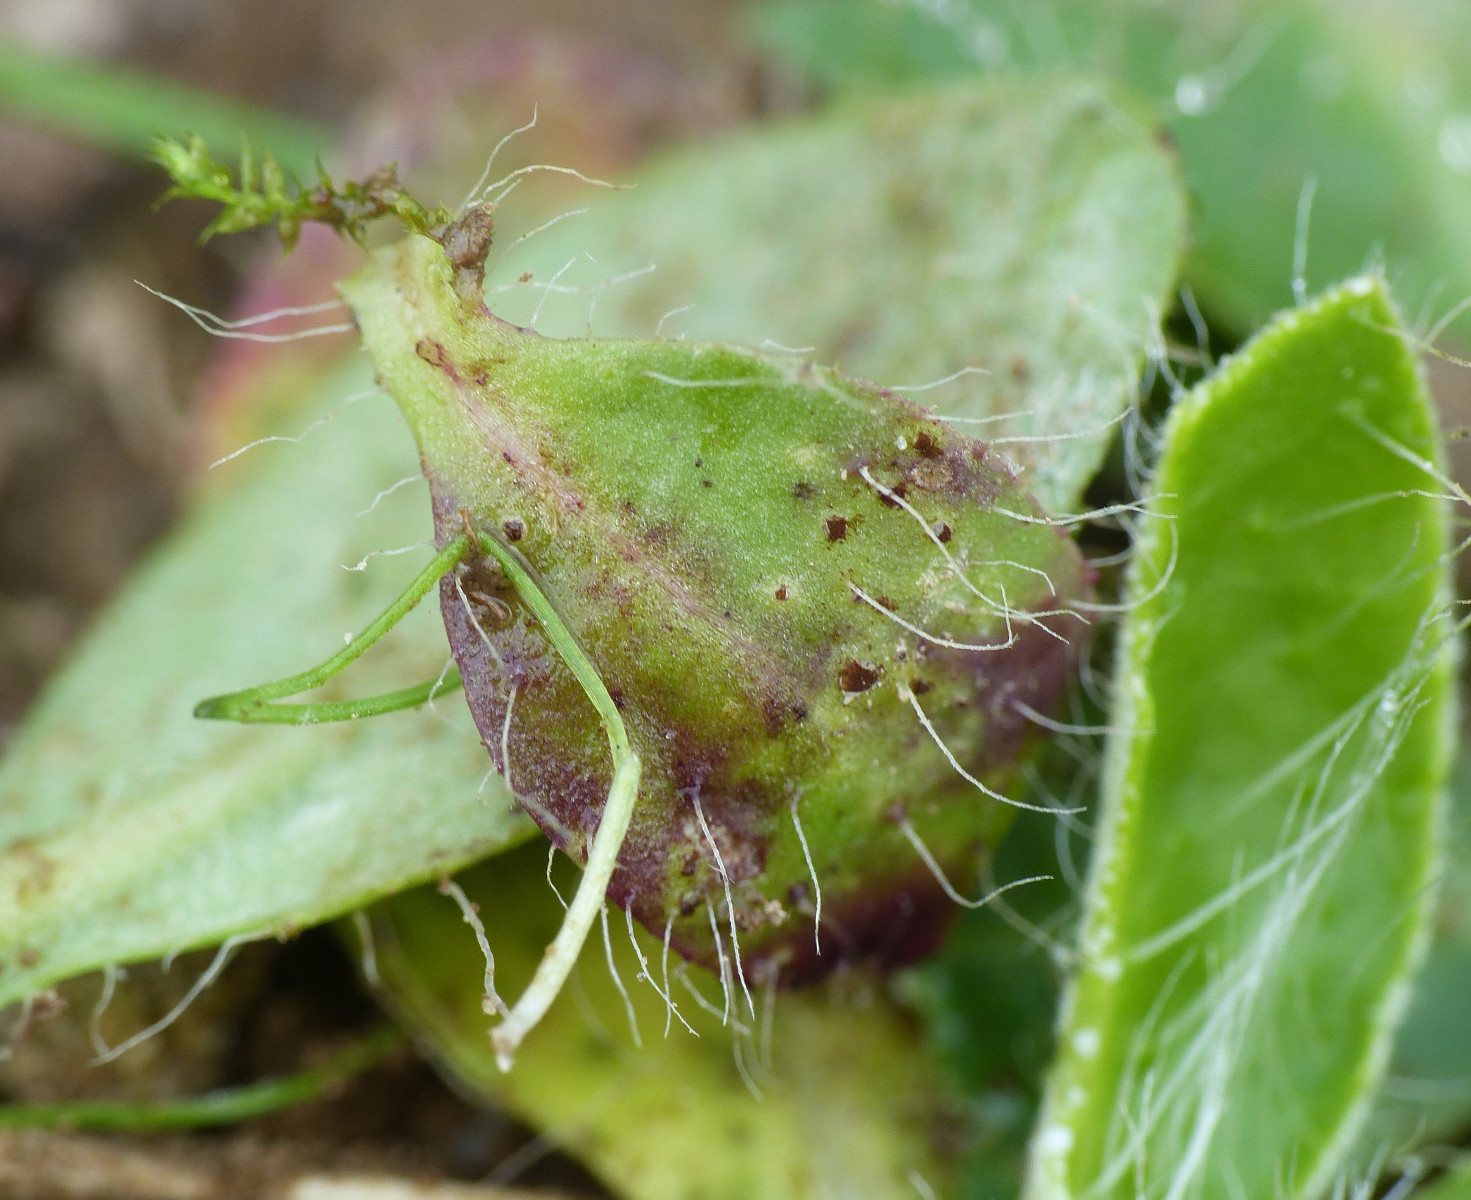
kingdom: Fungi
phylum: Basidiomycota
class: Pucciniomycetes
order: Pucciniales
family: Pucciniaceae
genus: Puccinia
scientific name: Puccinia piloselloidarum
